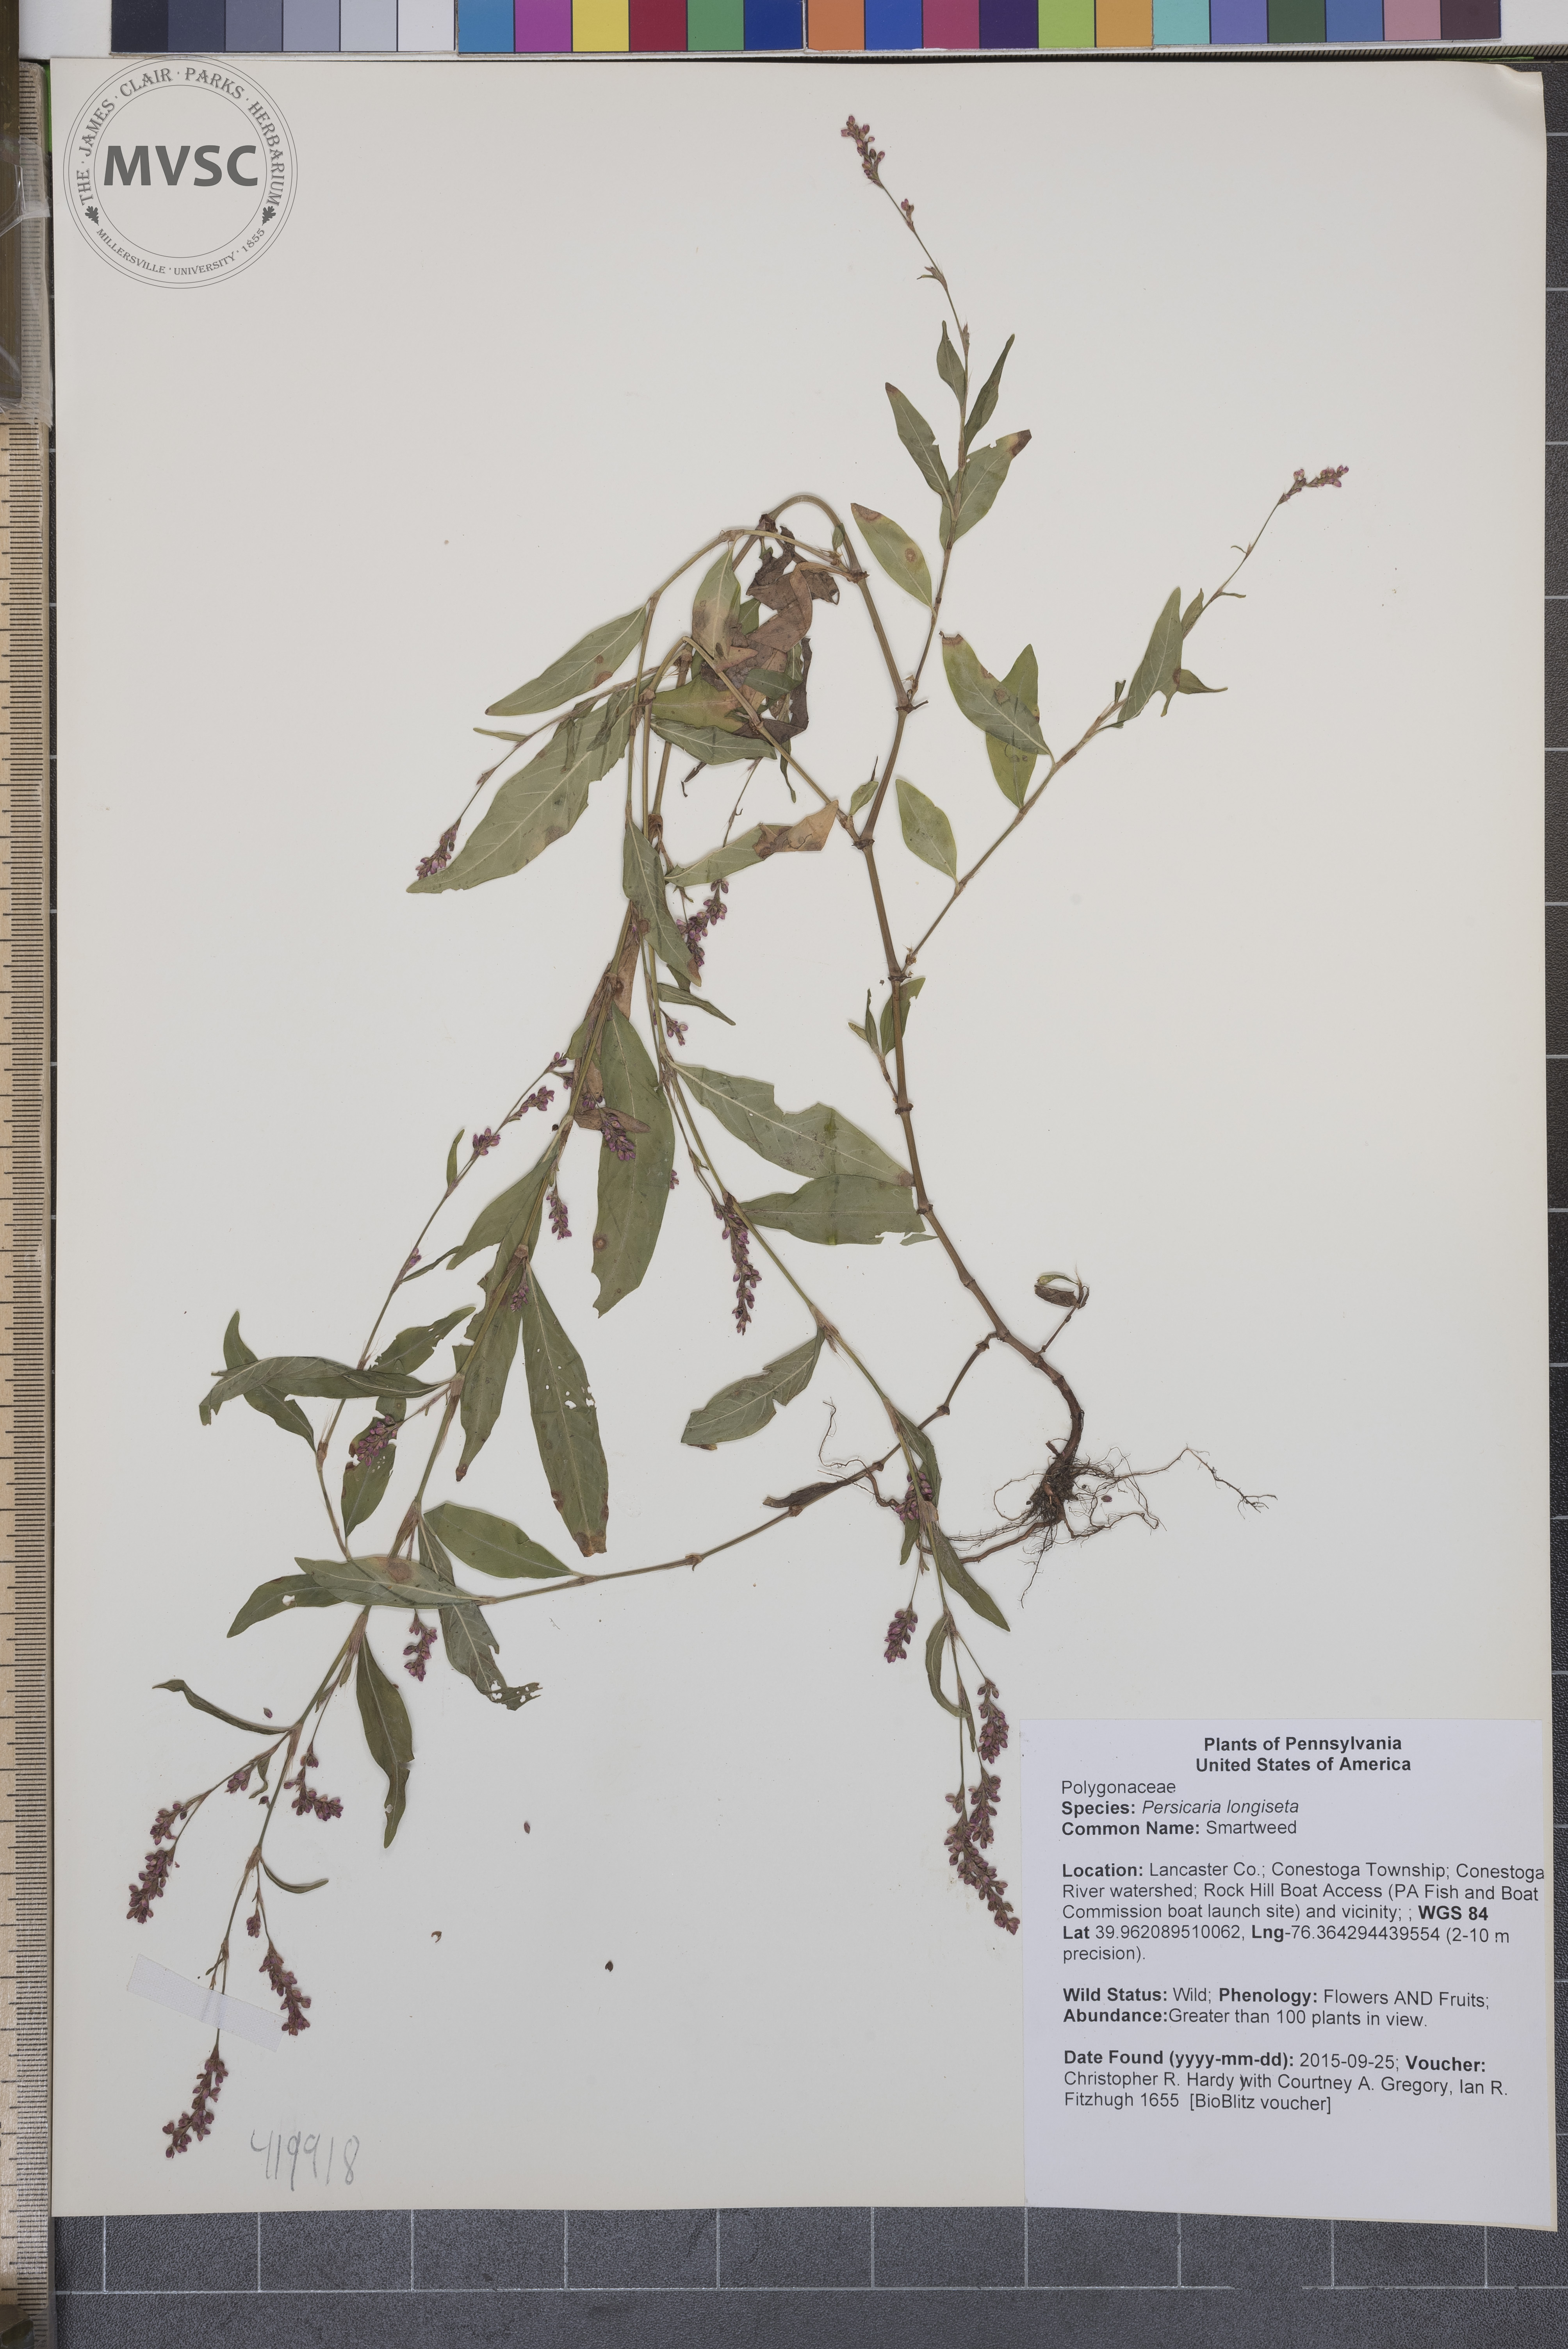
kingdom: Plantae
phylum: Tracheophyta
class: Magnoliopsida
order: Caryophyllales
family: Polygonaceae
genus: Persicaria
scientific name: Persicaria longiseta
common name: Smartweed
